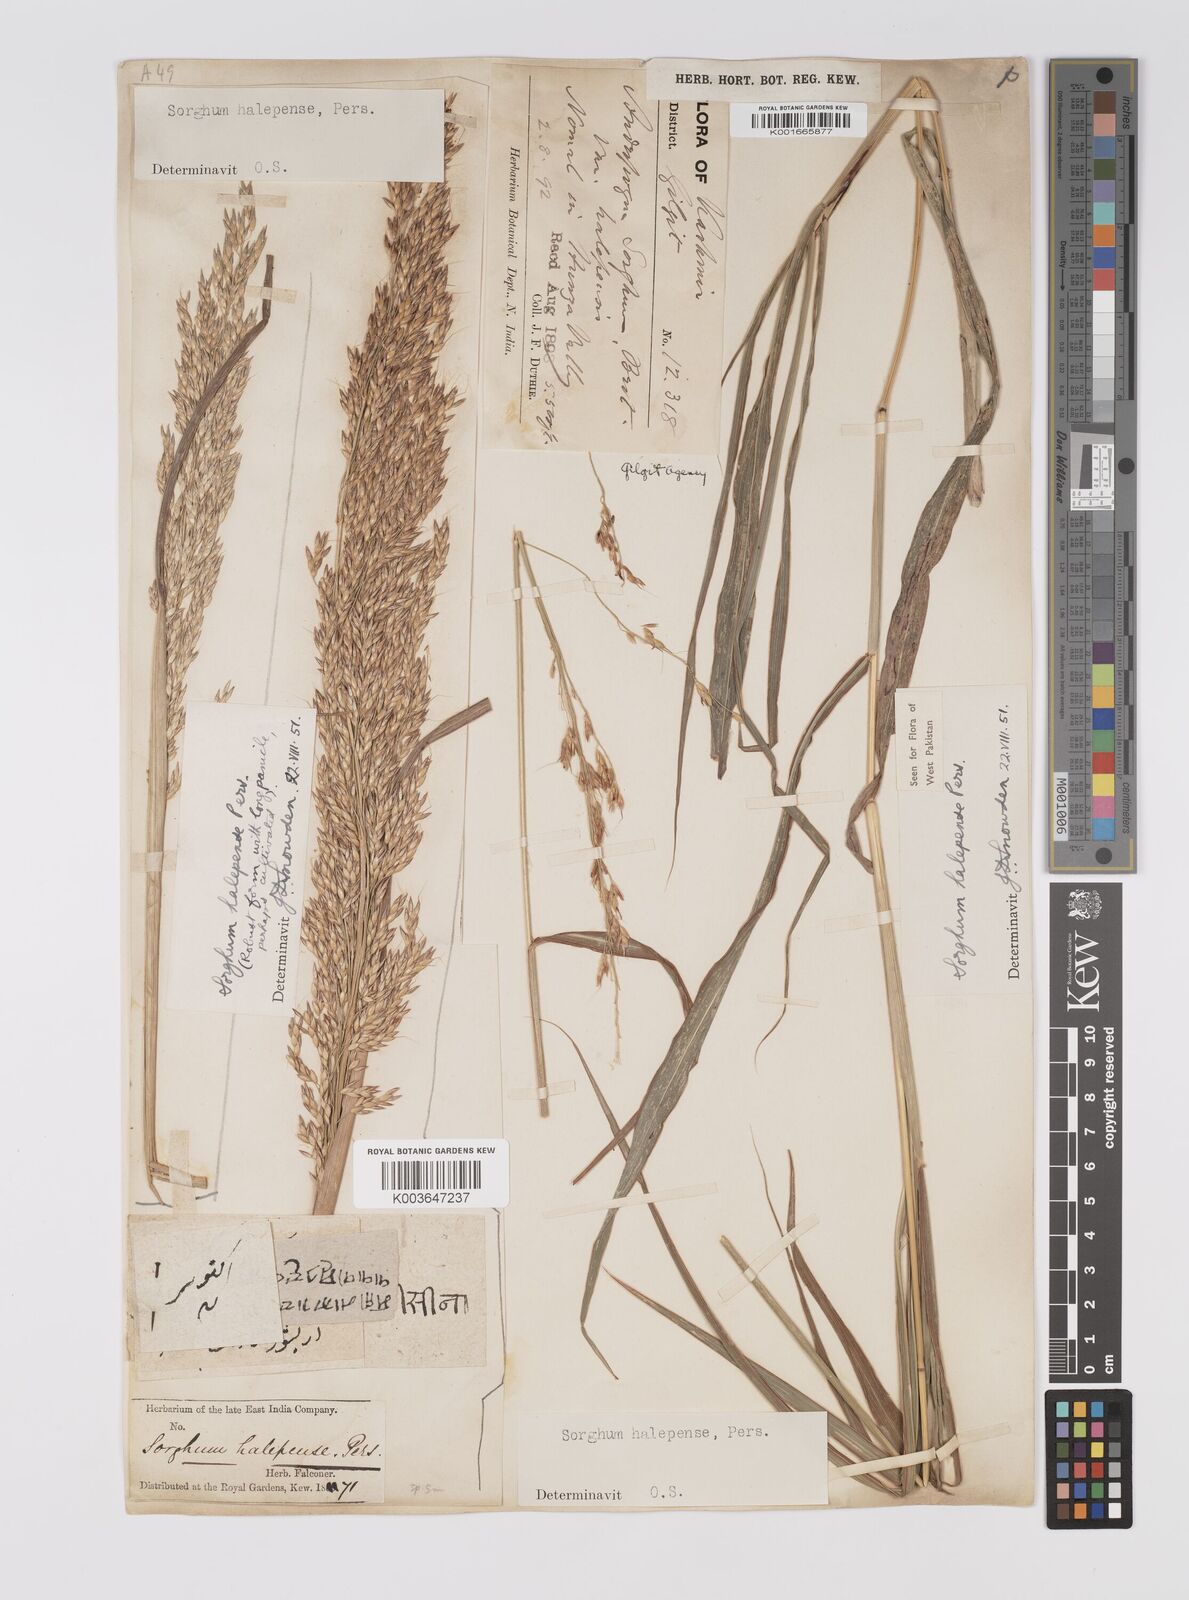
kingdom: Plantae
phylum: Tracheophyta
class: Liliopsida
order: Poales
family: Poaceae
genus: Sorghum
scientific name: Sorghum halepense
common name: Johnson-grass
